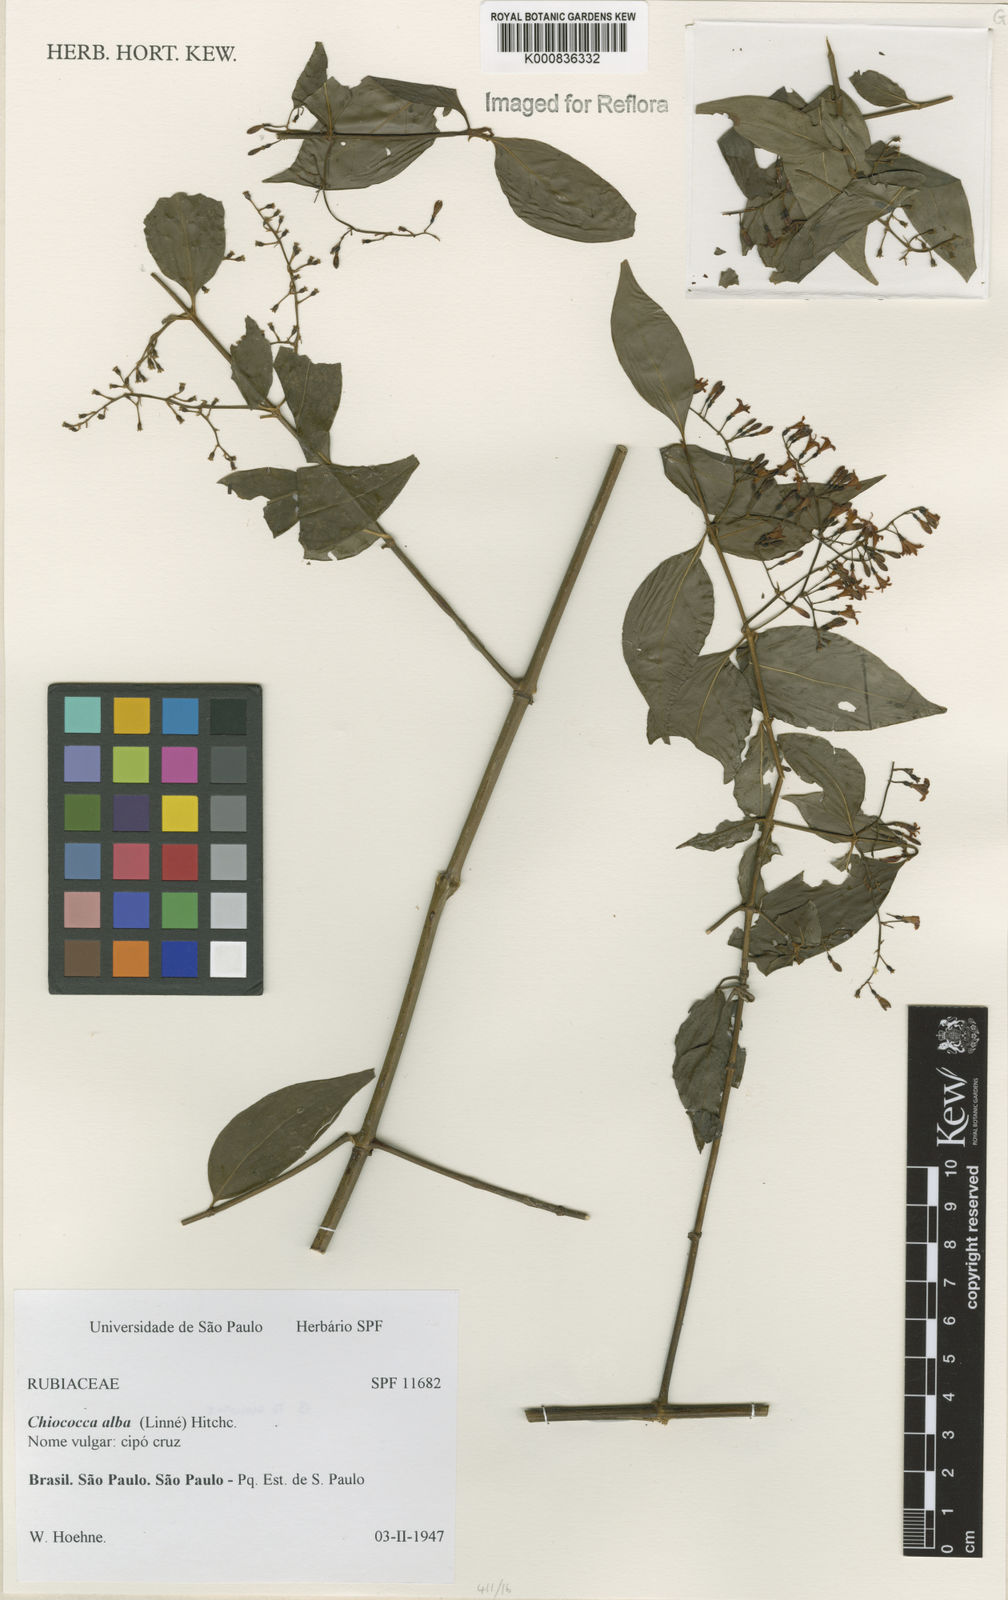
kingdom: Plantae
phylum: Tracheophyta
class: Magnoliopsida
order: Gentianales
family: Rubiaceae
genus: Chiococca
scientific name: Chiococca alba
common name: Snowberry
